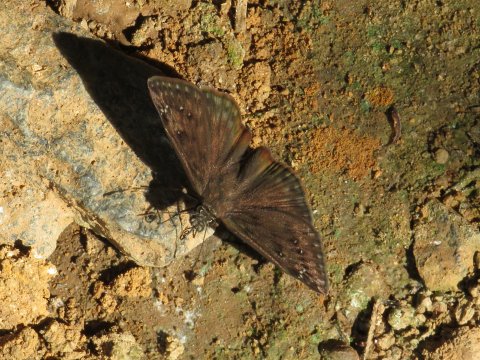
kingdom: Animalia
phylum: Arthropoda
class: Insecta
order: Lepidoptera
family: Hesperiidae
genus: Gesta
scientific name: Gesta
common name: Horace's Duskywing
